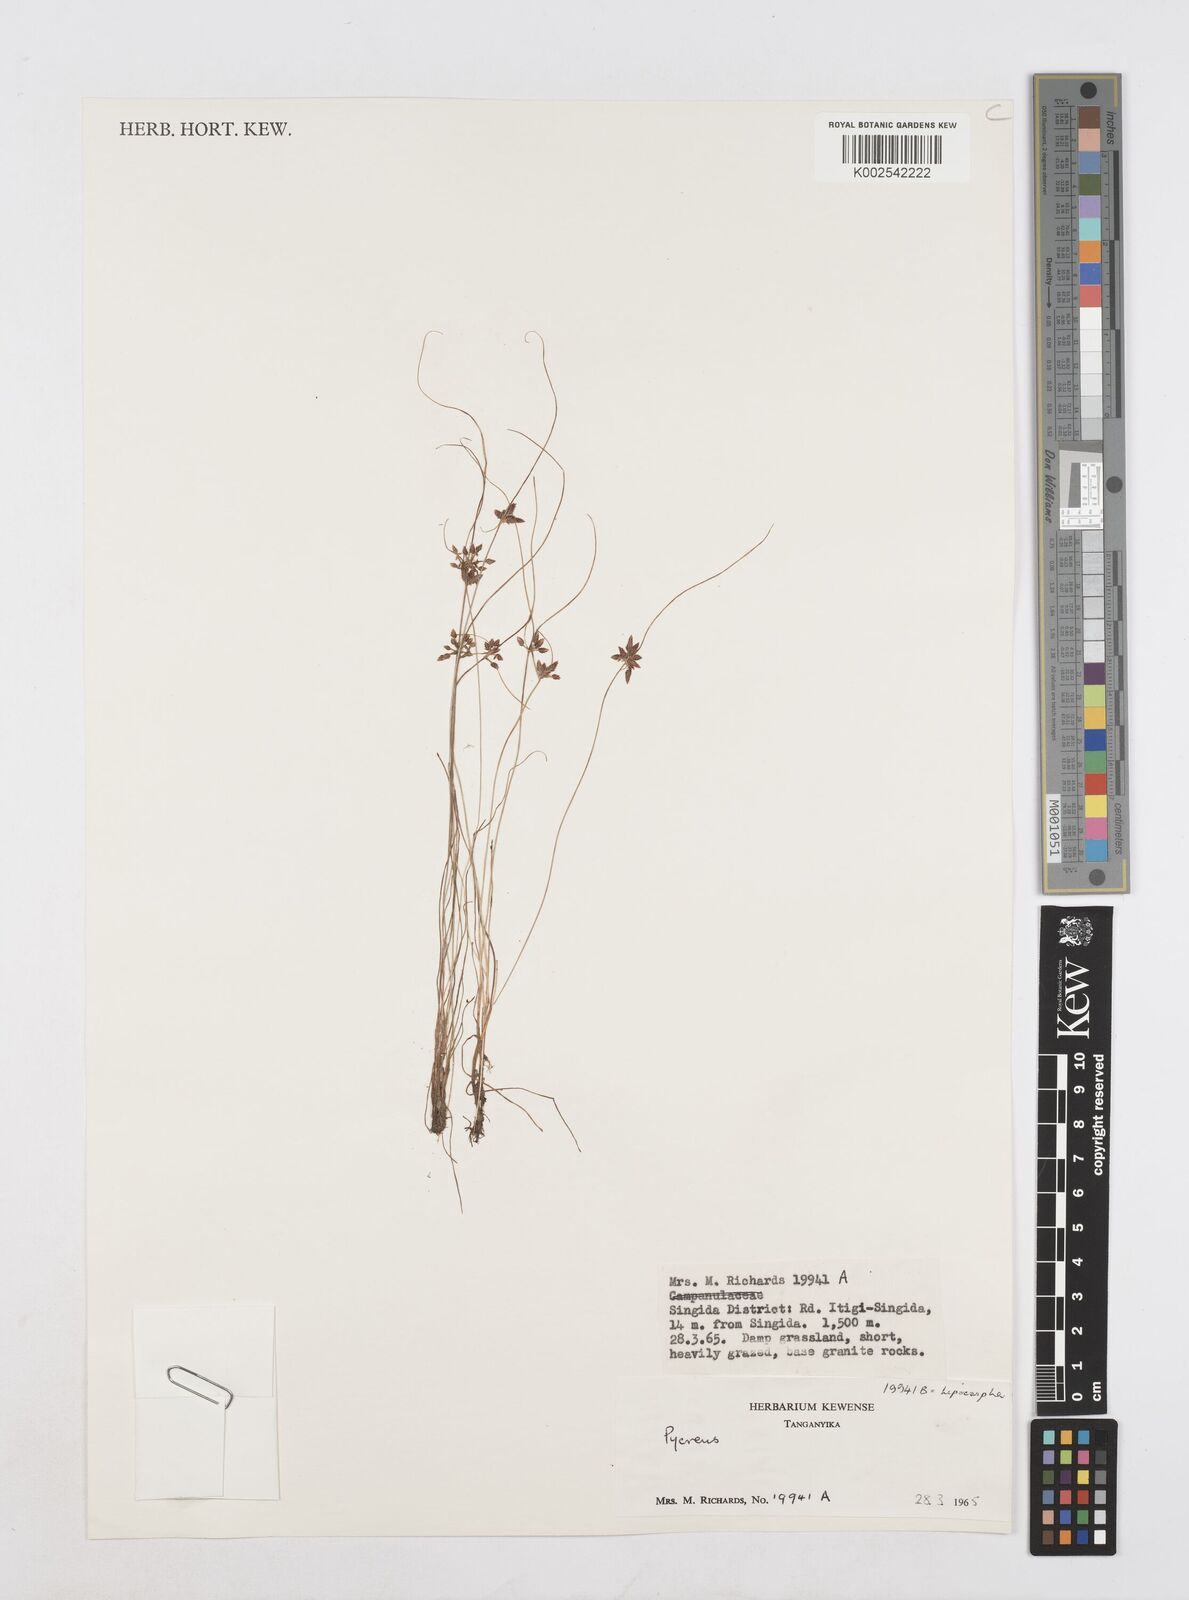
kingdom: Plantae
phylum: Tracheophyta
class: Liliopsida
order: Poales
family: Cyperaceae
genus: Cyperus
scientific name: Cyperus pauper
